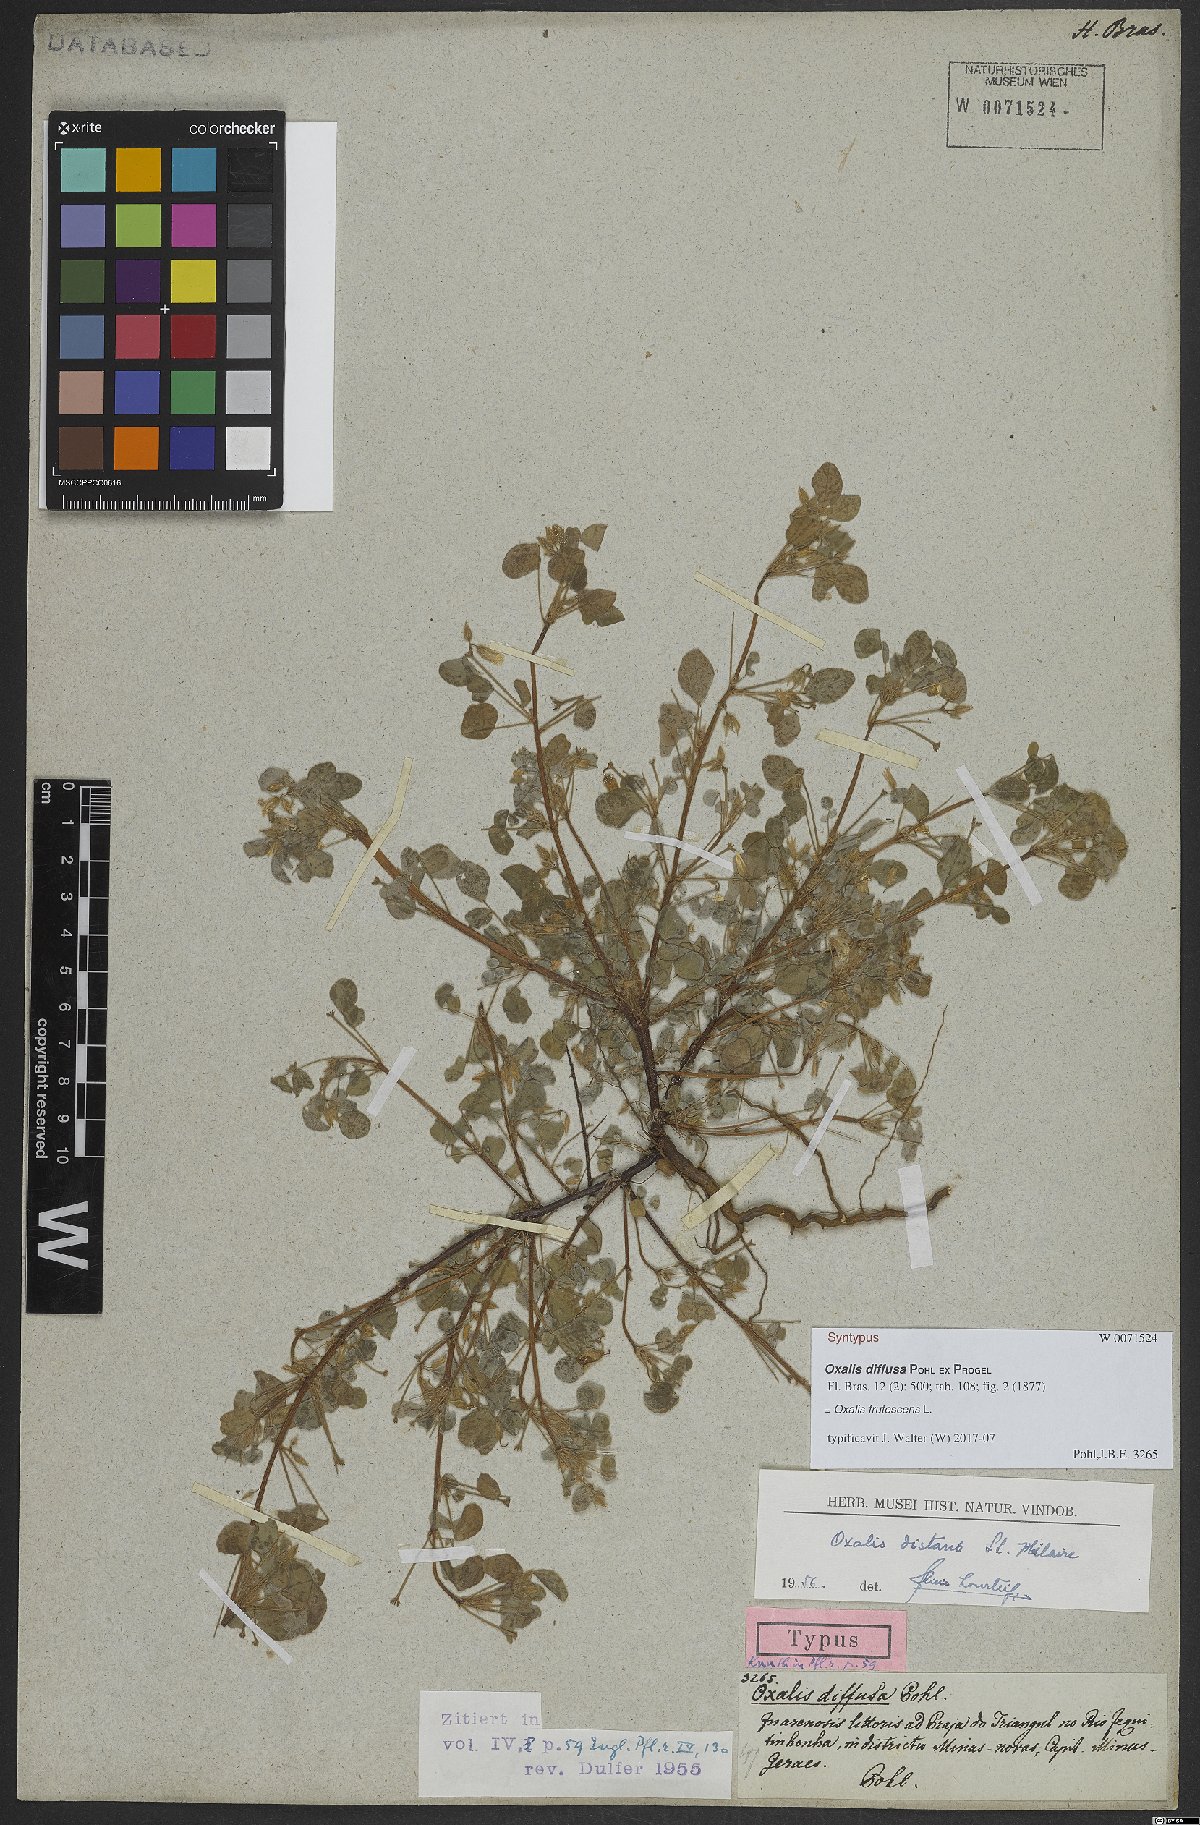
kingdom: Plantae
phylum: Tracheophyta
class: Magnoliopsida
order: Oxalidales
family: Oxalidaceae
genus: Oxalis
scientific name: Oxalis frutescens
